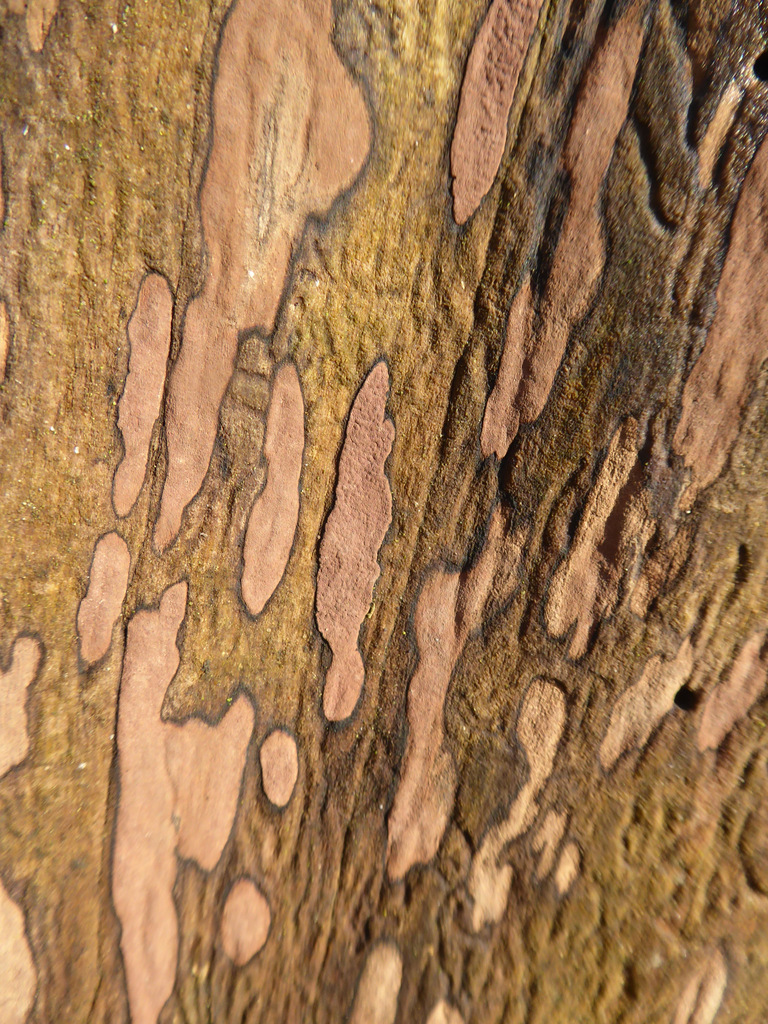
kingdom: Fungi
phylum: Ascomycota
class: Sordariomycetes
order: Xylariales
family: Hypoxylaceae
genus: Hypoxylon
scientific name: Hypoxylon petriniae
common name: nedsænket kulbær
